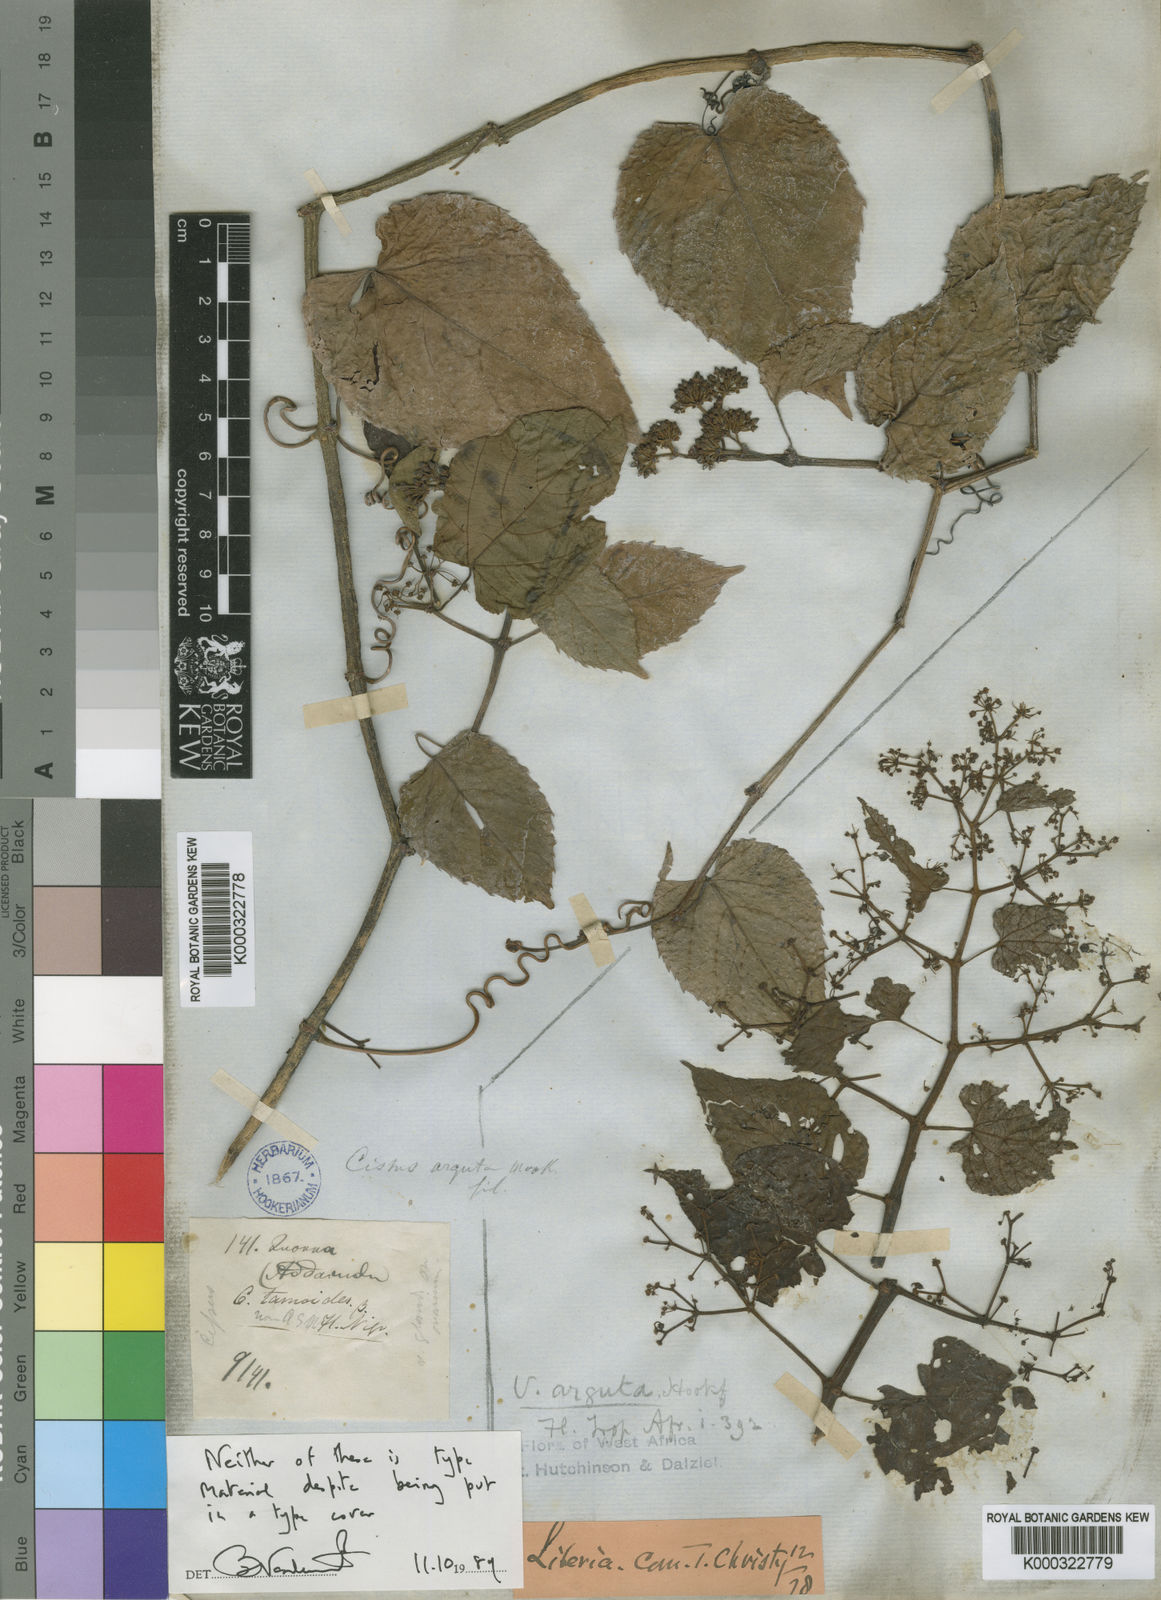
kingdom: Plantae
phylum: Tracheophyta
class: Magnoliopsida
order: Vitales
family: Vitaceae
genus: Cissus
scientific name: Cissus arguta
